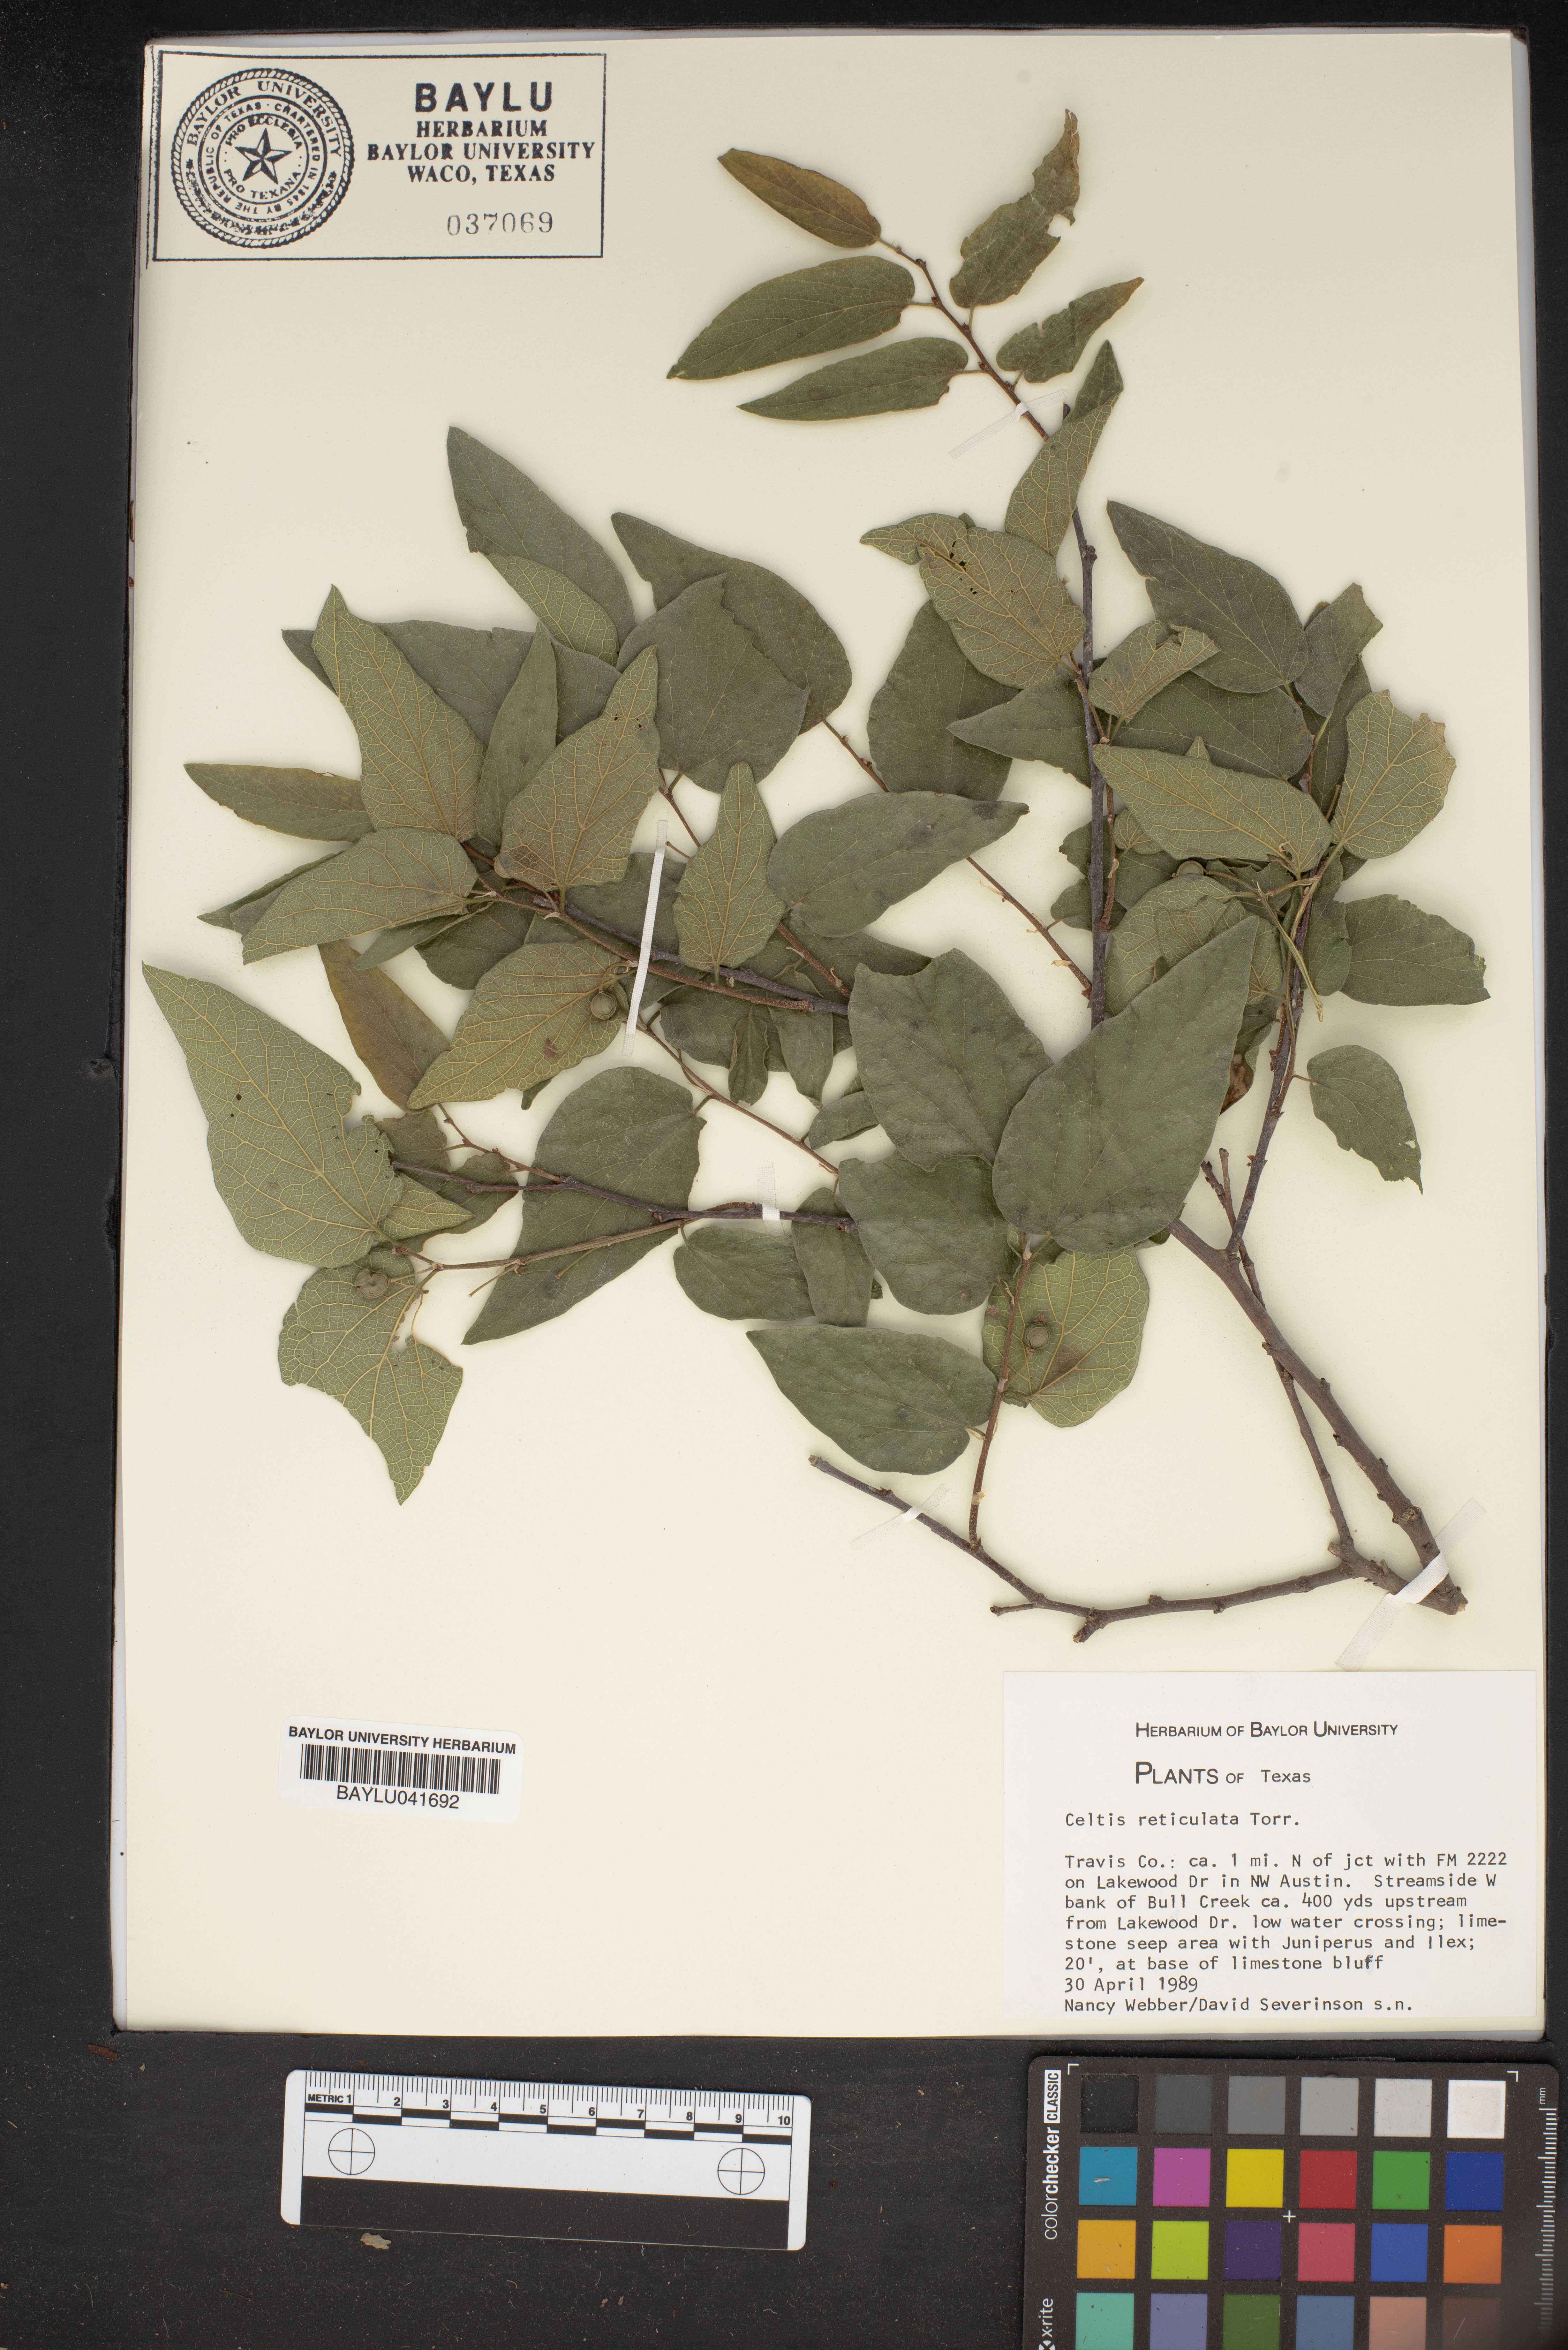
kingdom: Plantae
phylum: Tracheophyta
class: Magnoliopsida
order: Rosales
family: Cannabaceae
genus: Celtis
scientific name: Celtis reticulata
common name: Netleaf hackberry
